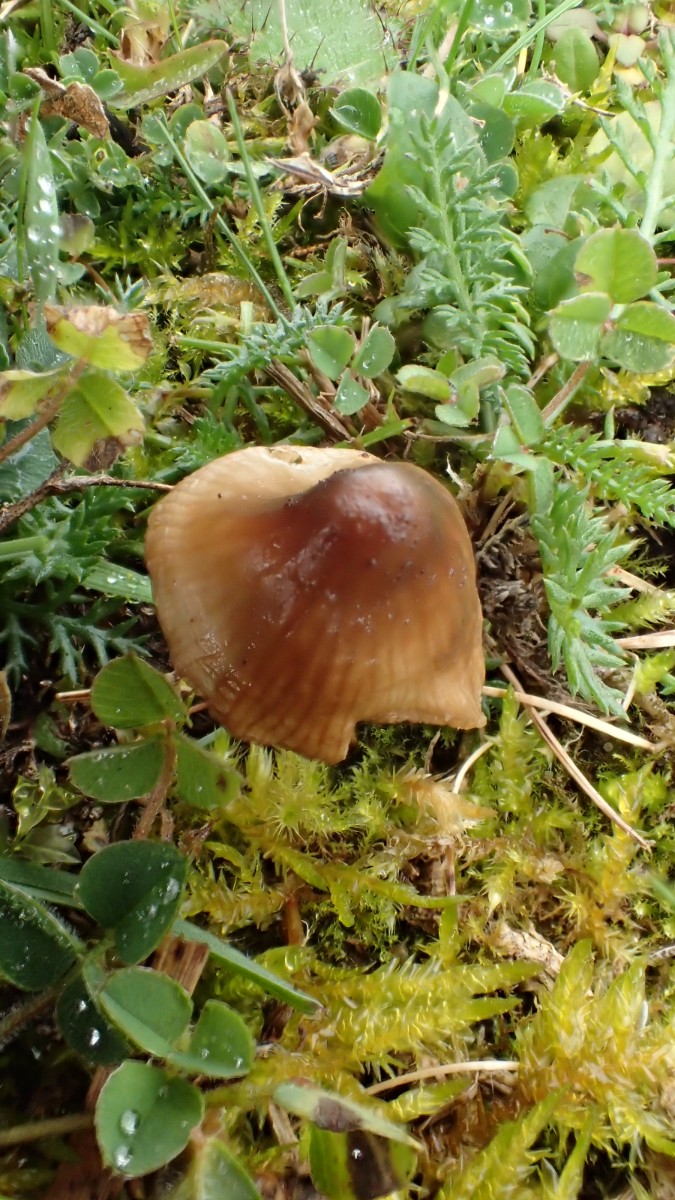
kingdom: Fungi
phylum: Basidiomycota
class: Agaricomycetes
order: Agaricales
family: Tricholomataceae
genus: Mycenella
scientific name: Mycenella bryophila
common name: mos-dughat
